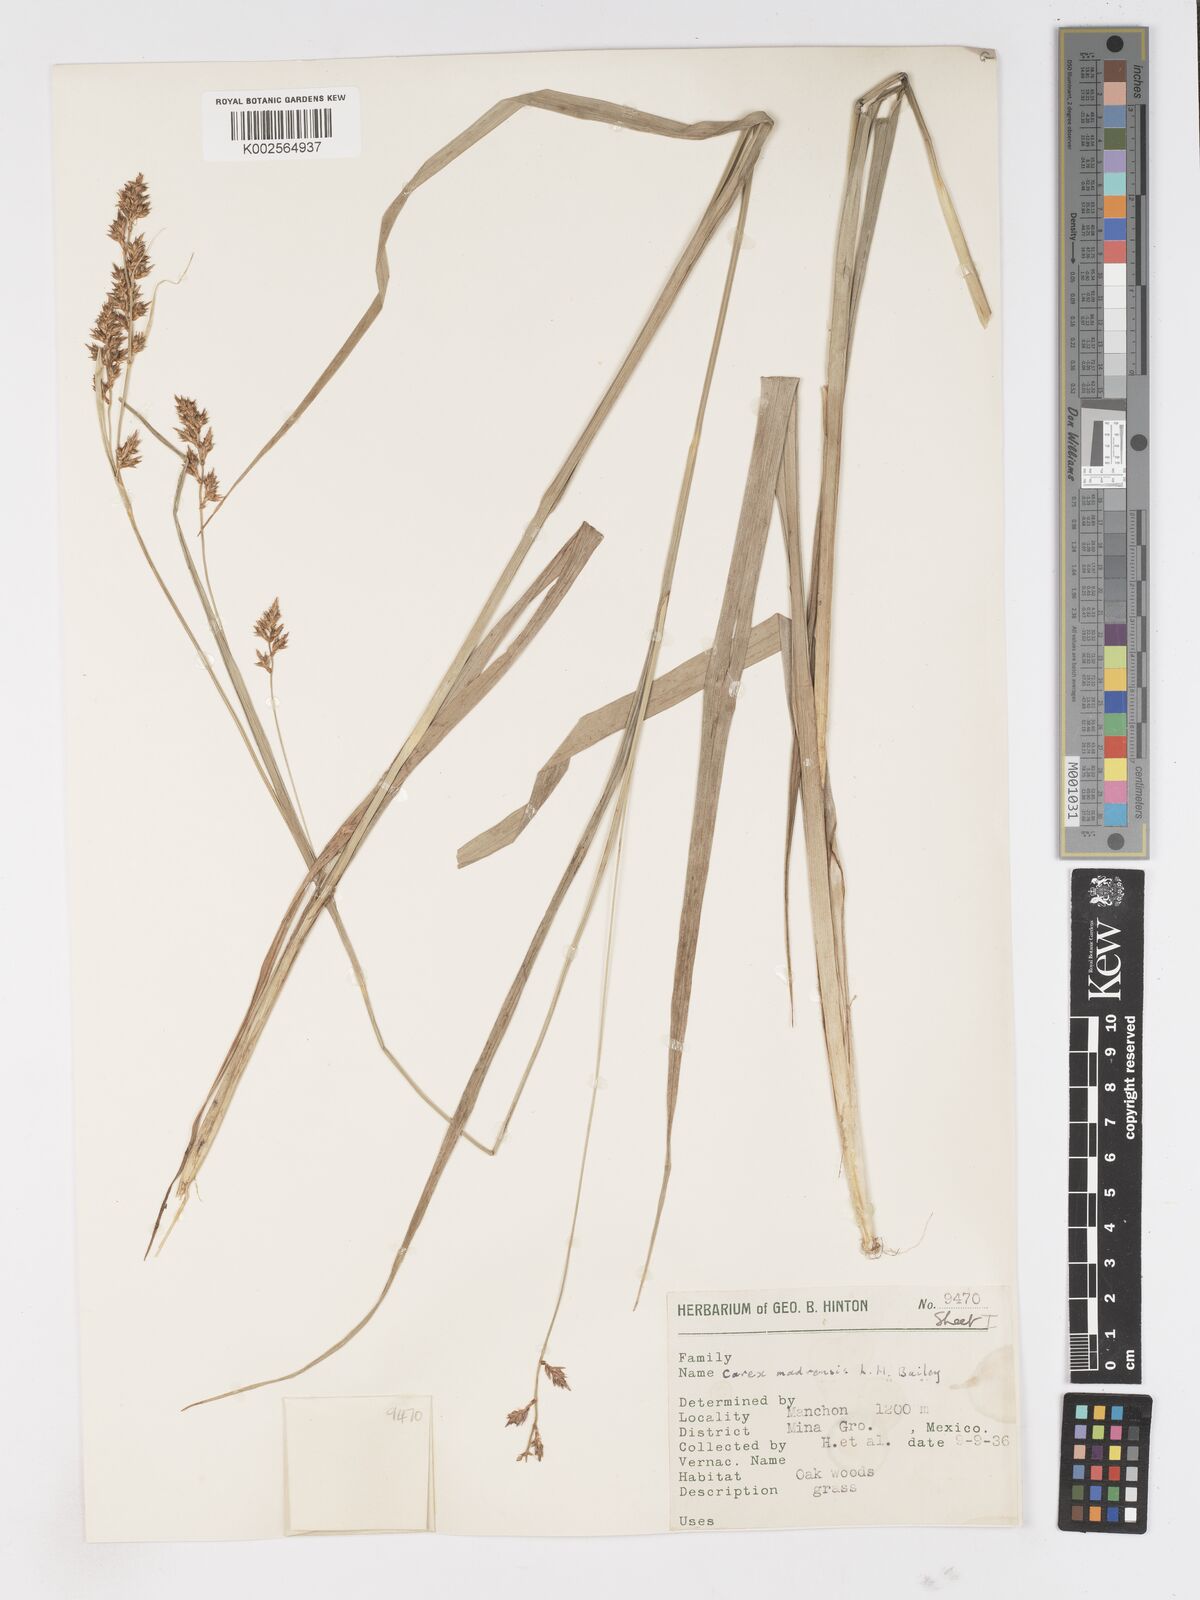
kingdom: Plantae
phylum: Tracheophyta
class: Liliopsida
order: Poales
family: Cyperaceae
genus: Carex
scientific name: Carex madrensis
